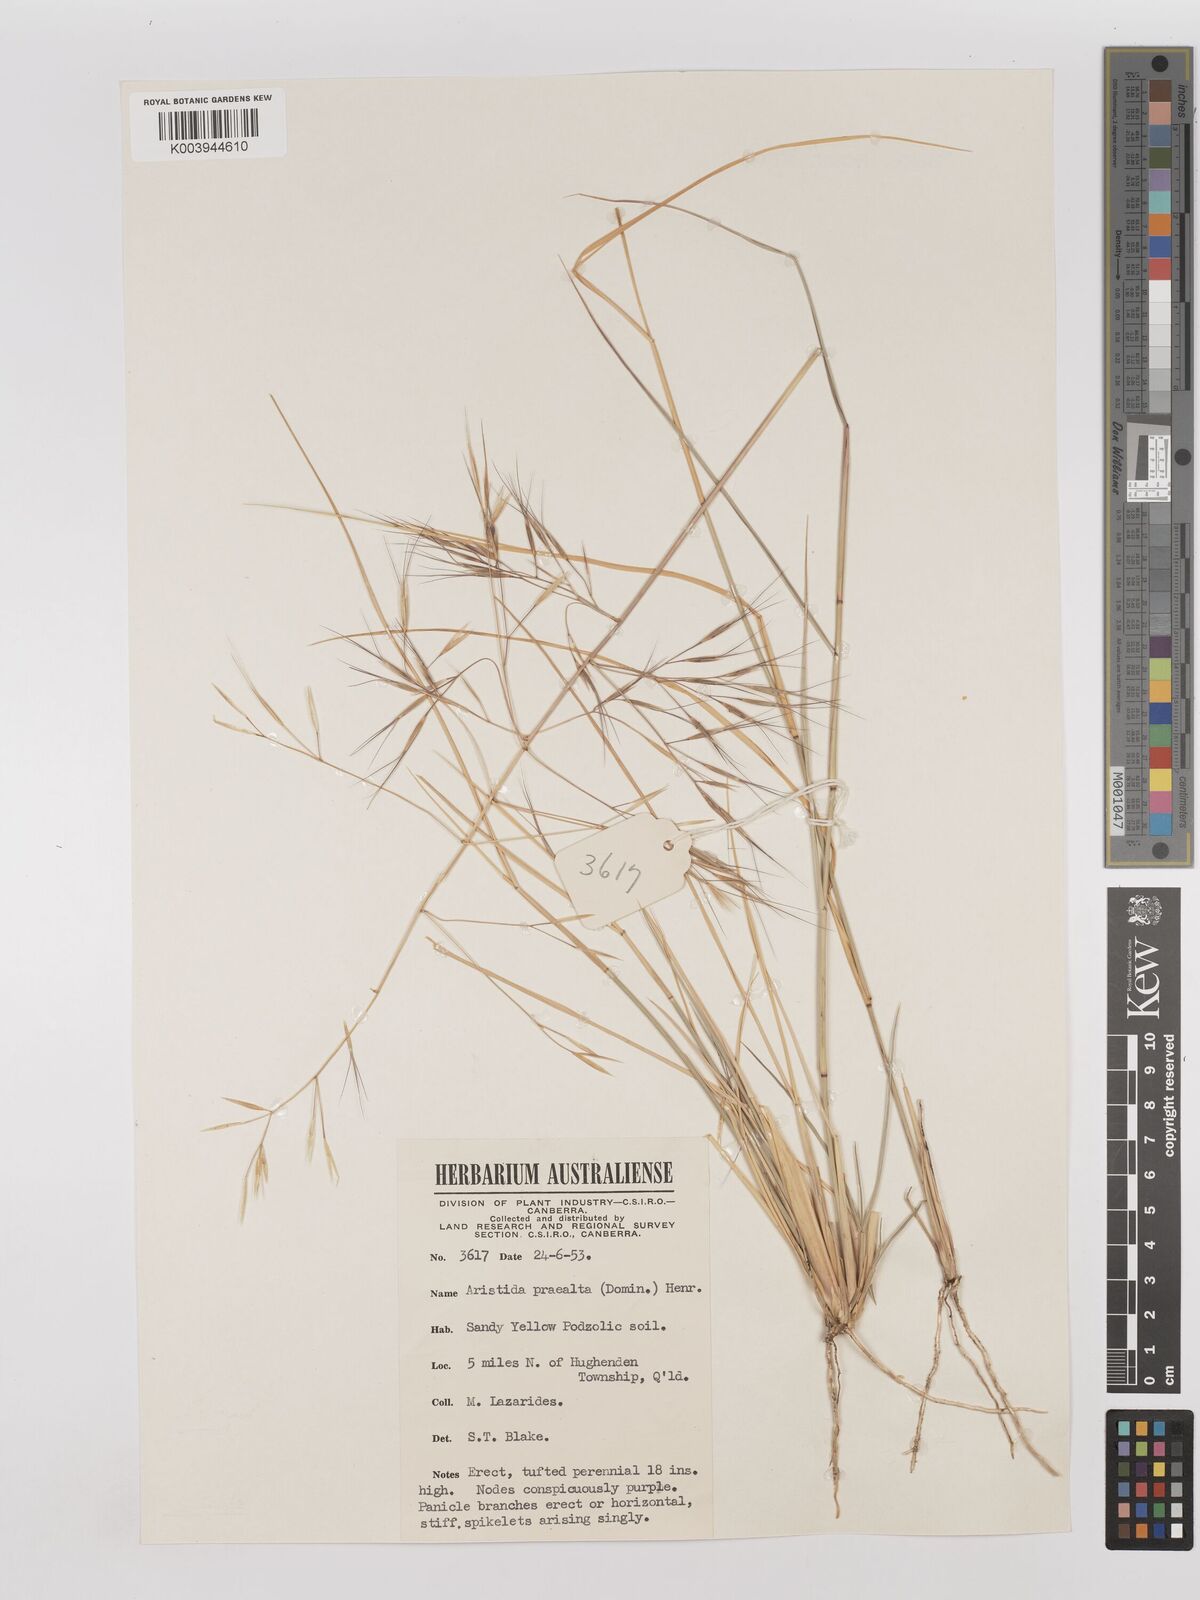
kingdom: Plantae
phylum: Tracheophyta
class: Liliopsida
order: Poales
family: Poaceae
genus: Aristida
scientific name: Aristida calycina
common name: Dark wire grass
